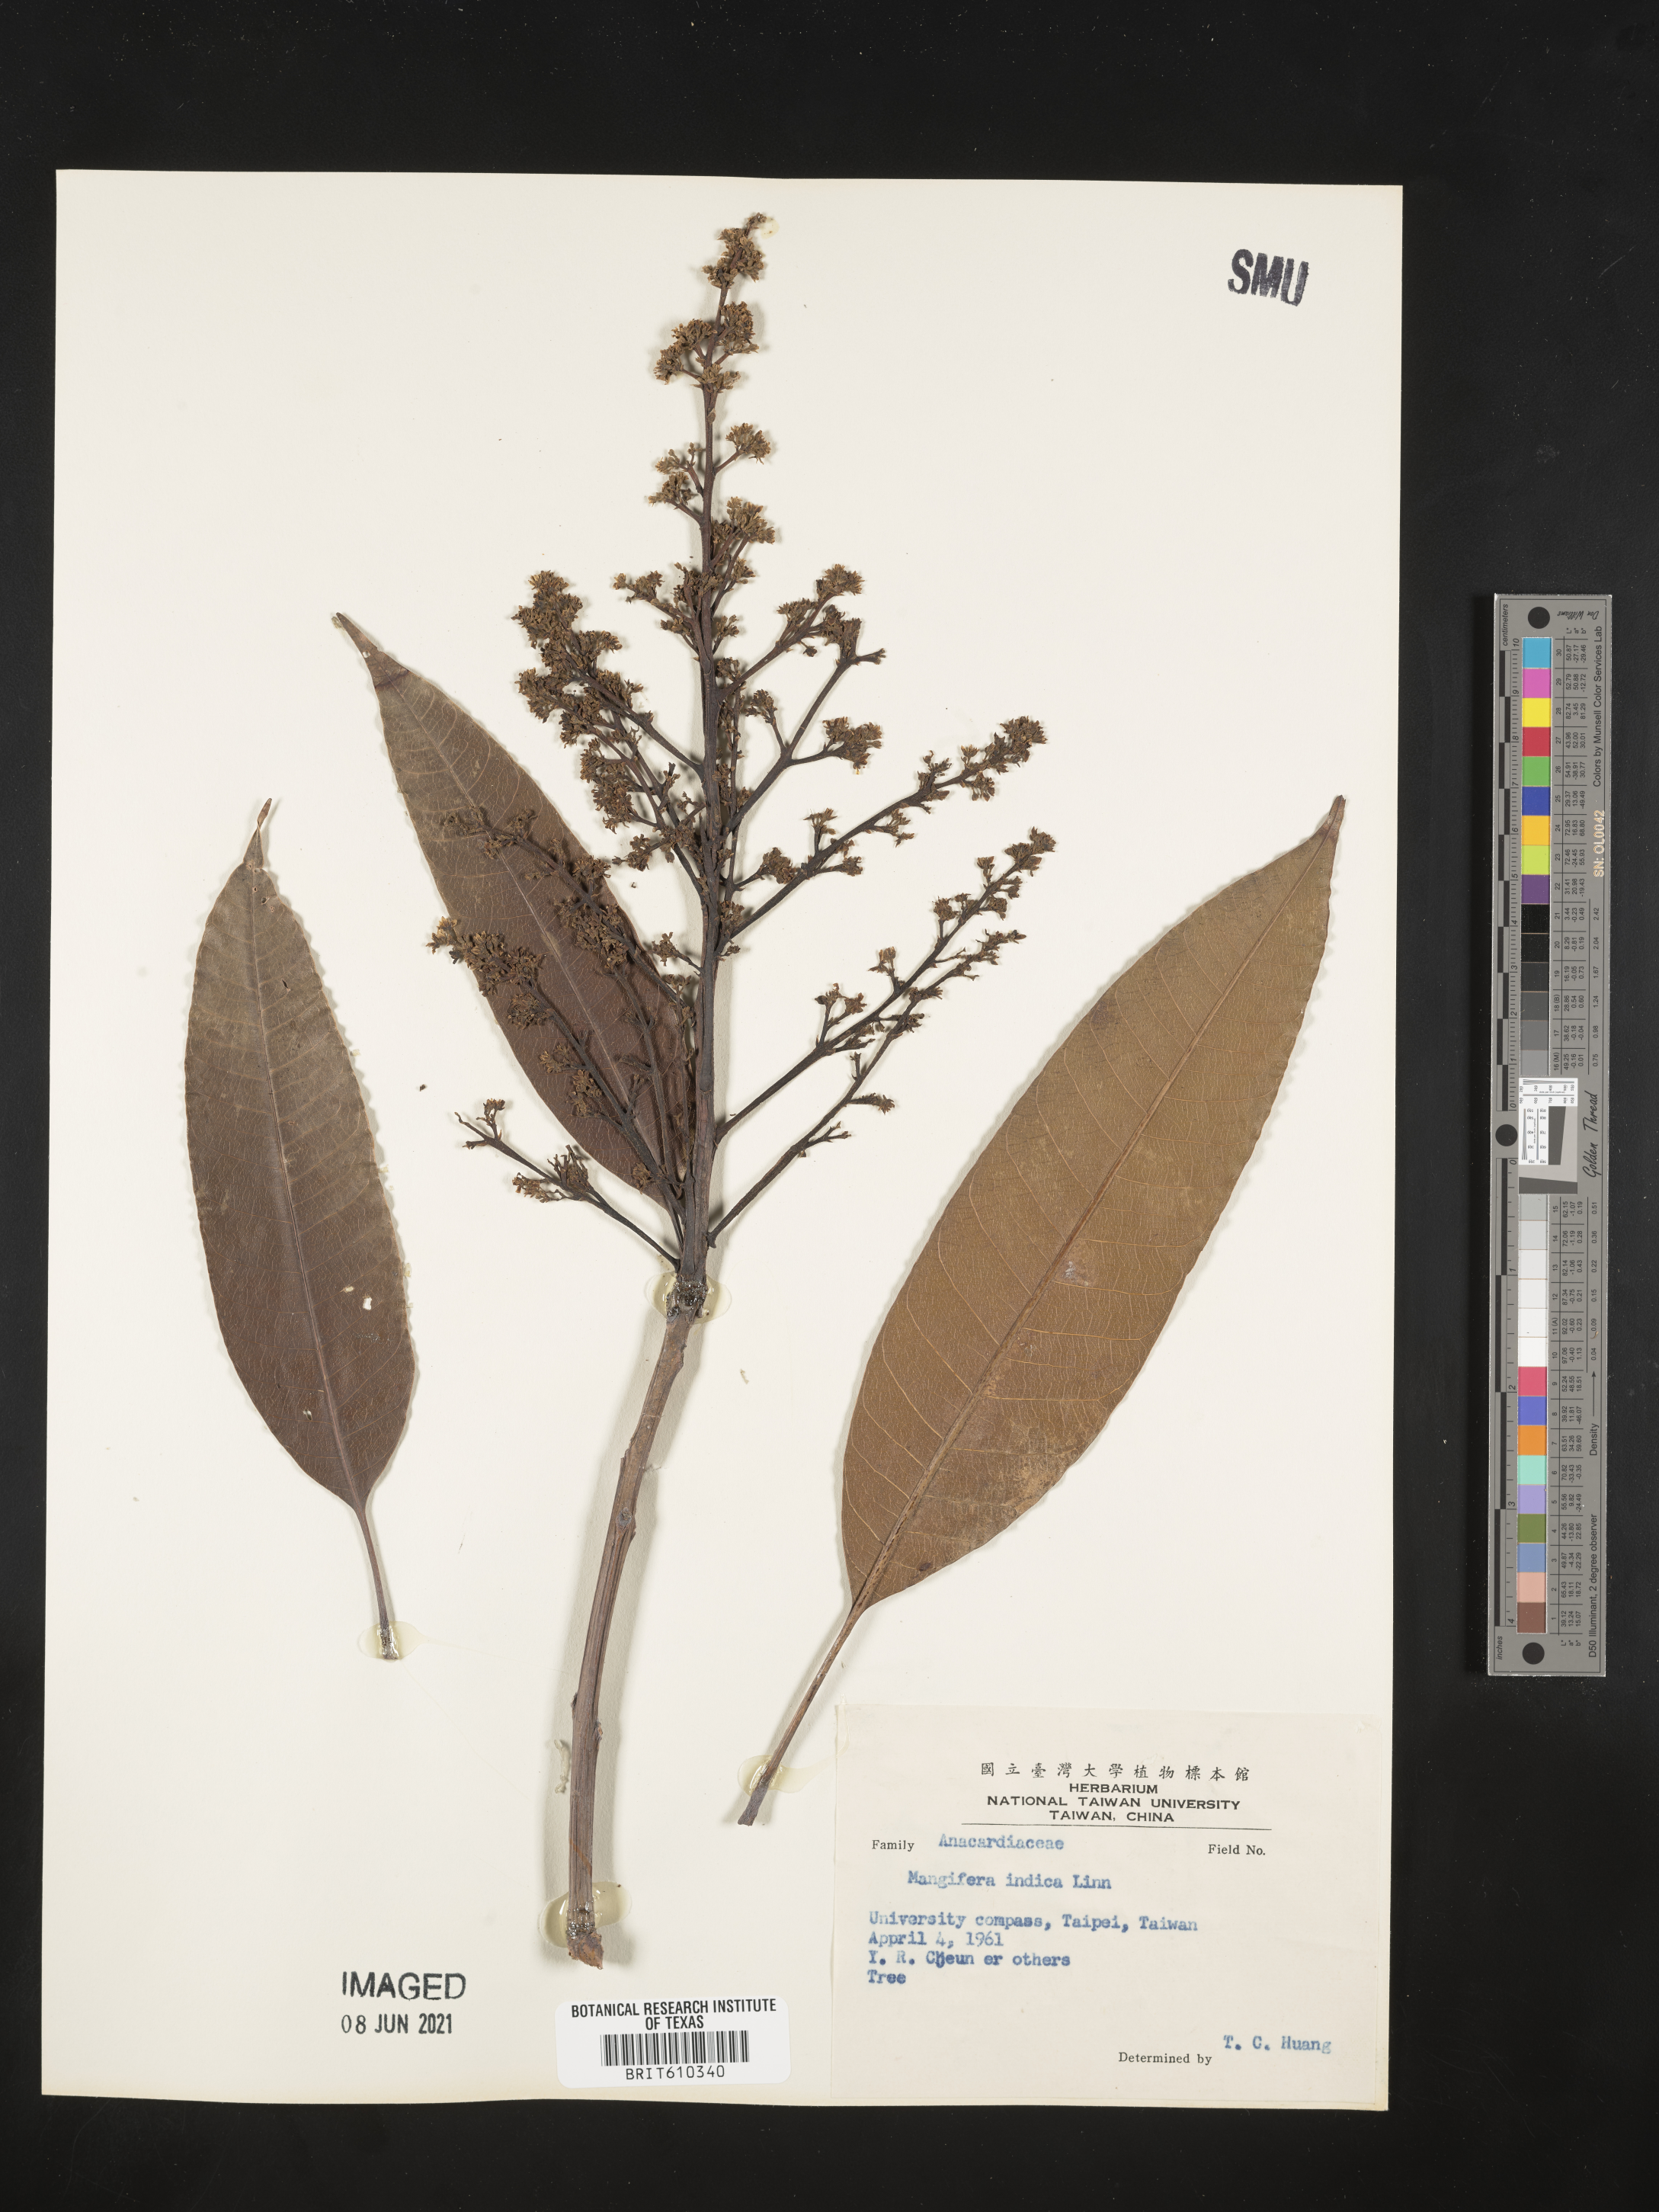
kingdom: Plantae
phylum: Tracheophyta
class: Magnoliopsida
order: Sapindales
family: Anacardiaceae
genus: Mangifera
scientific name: Mangifera sylvatica
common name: Nepal mango
